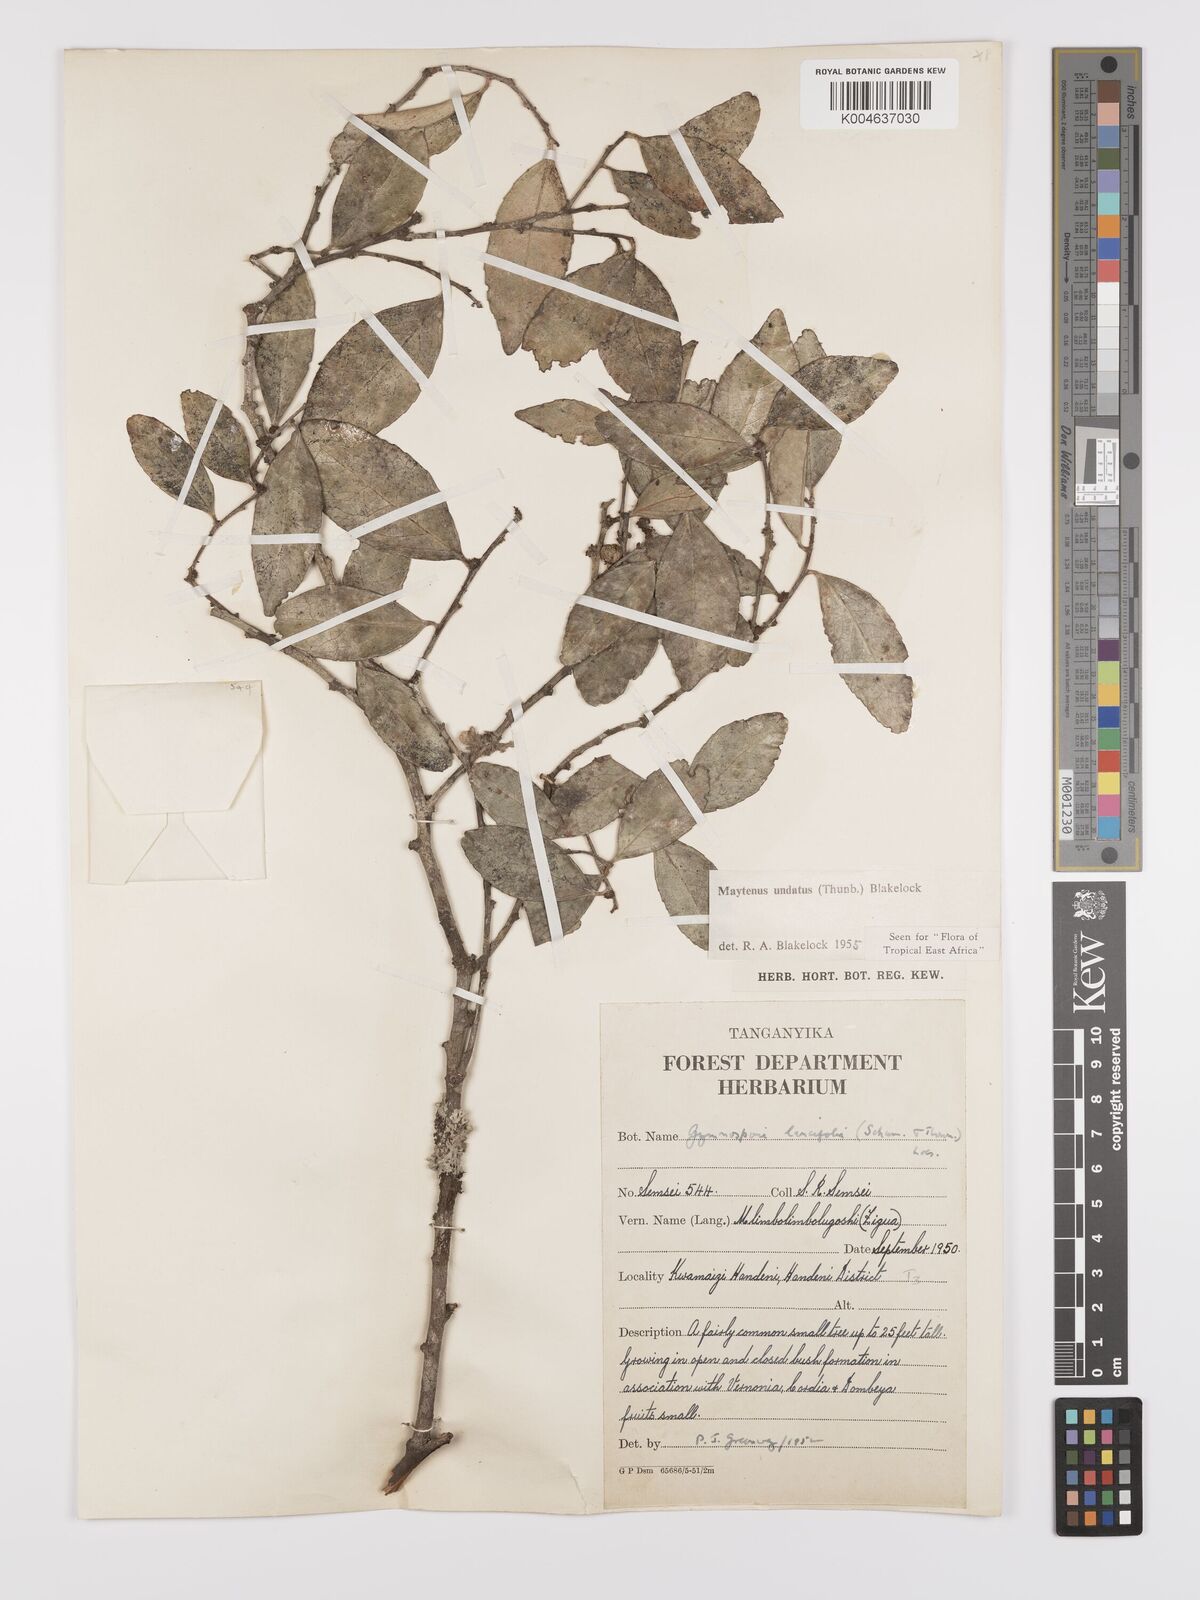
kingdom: Plantae
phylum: Tracheophyta
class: Magnoliopsida
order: Celastrales
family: Celastraceae
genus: Gymnosporia
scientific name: Gymnosporia undata
